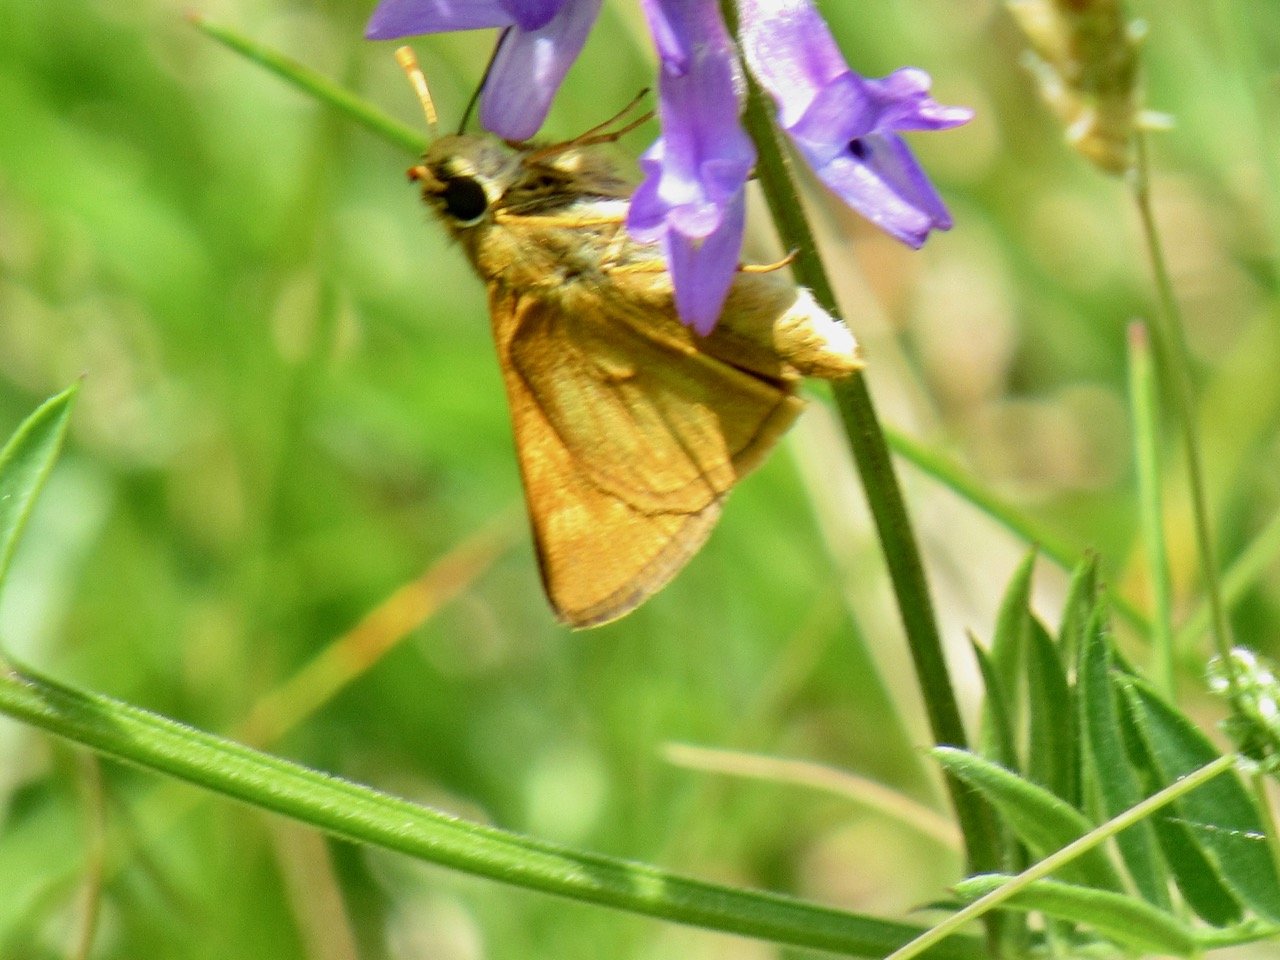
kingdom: Animalia
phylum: Arthropoda
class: Insecta
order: Lepidoptera
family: Hesperiidae
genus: Polites
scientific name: Polites
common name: Long Dash Skipper
